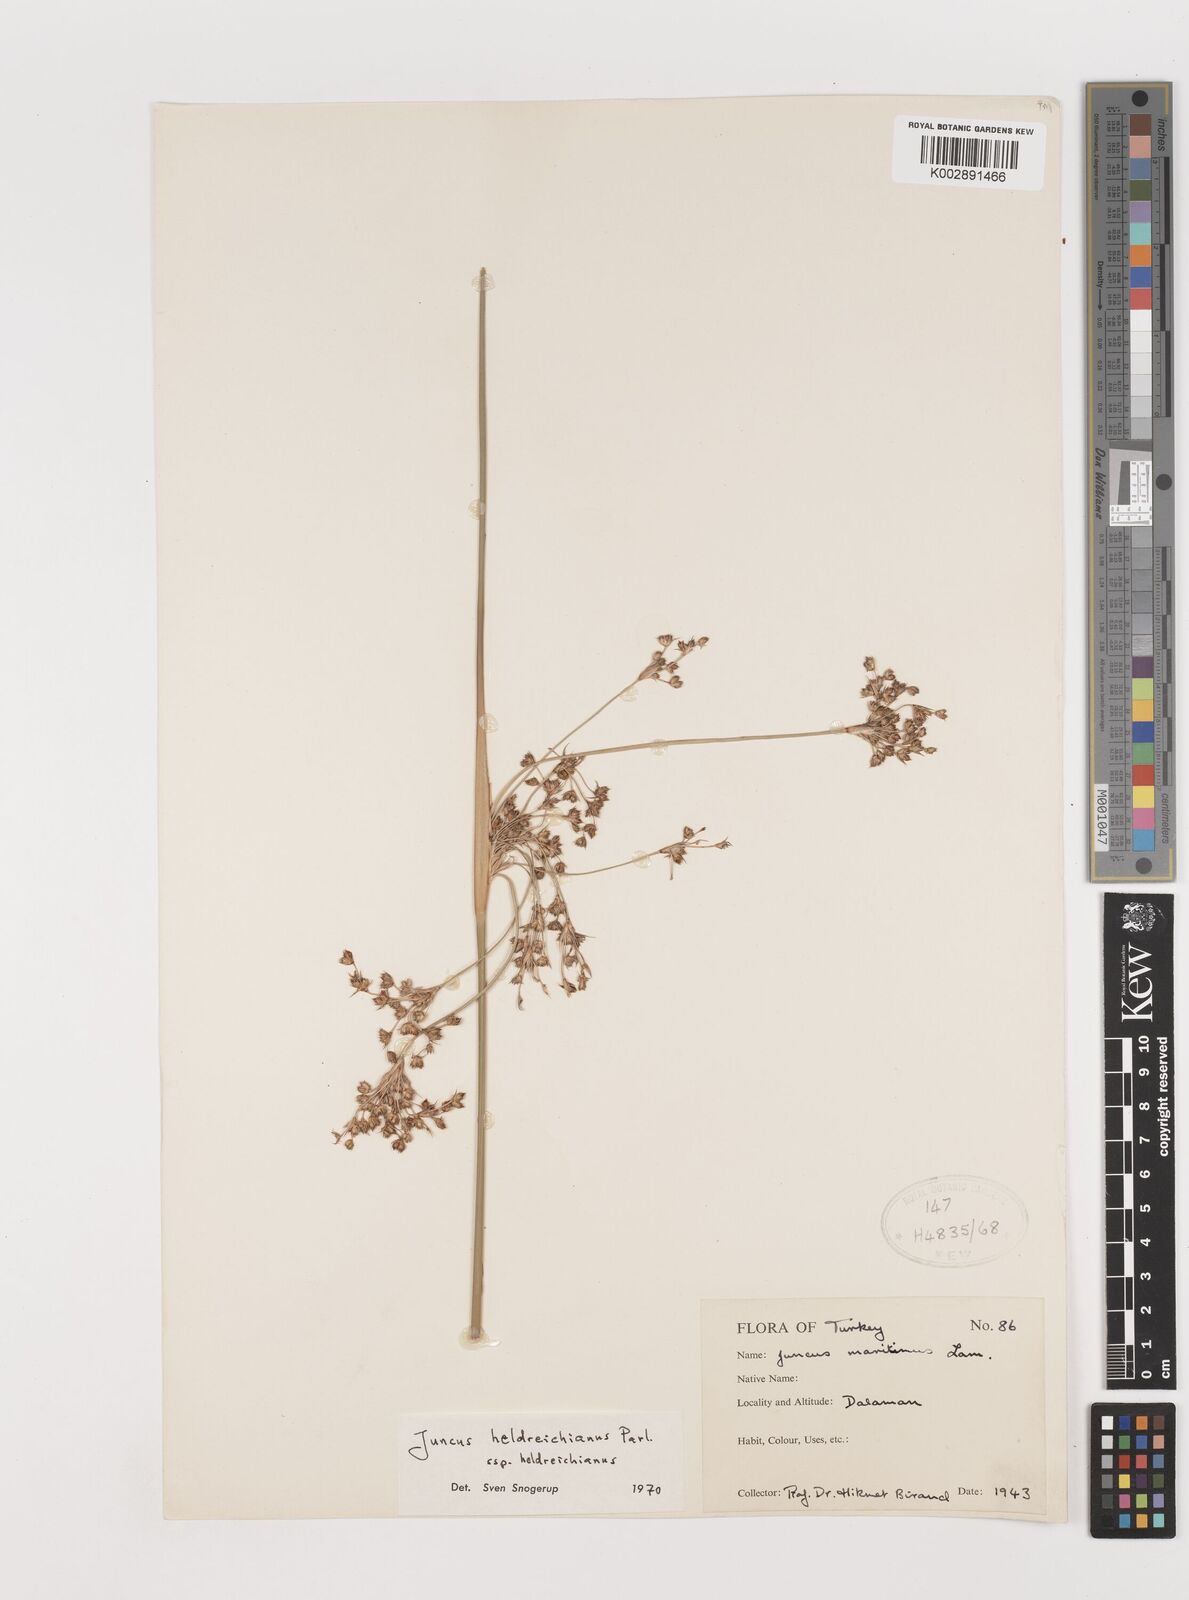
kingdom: Plantae
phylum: Tracheophyta
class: Liliopsida
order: Poales
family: Juncaceae
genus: Juncus
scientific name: Juncus heldreichianus
